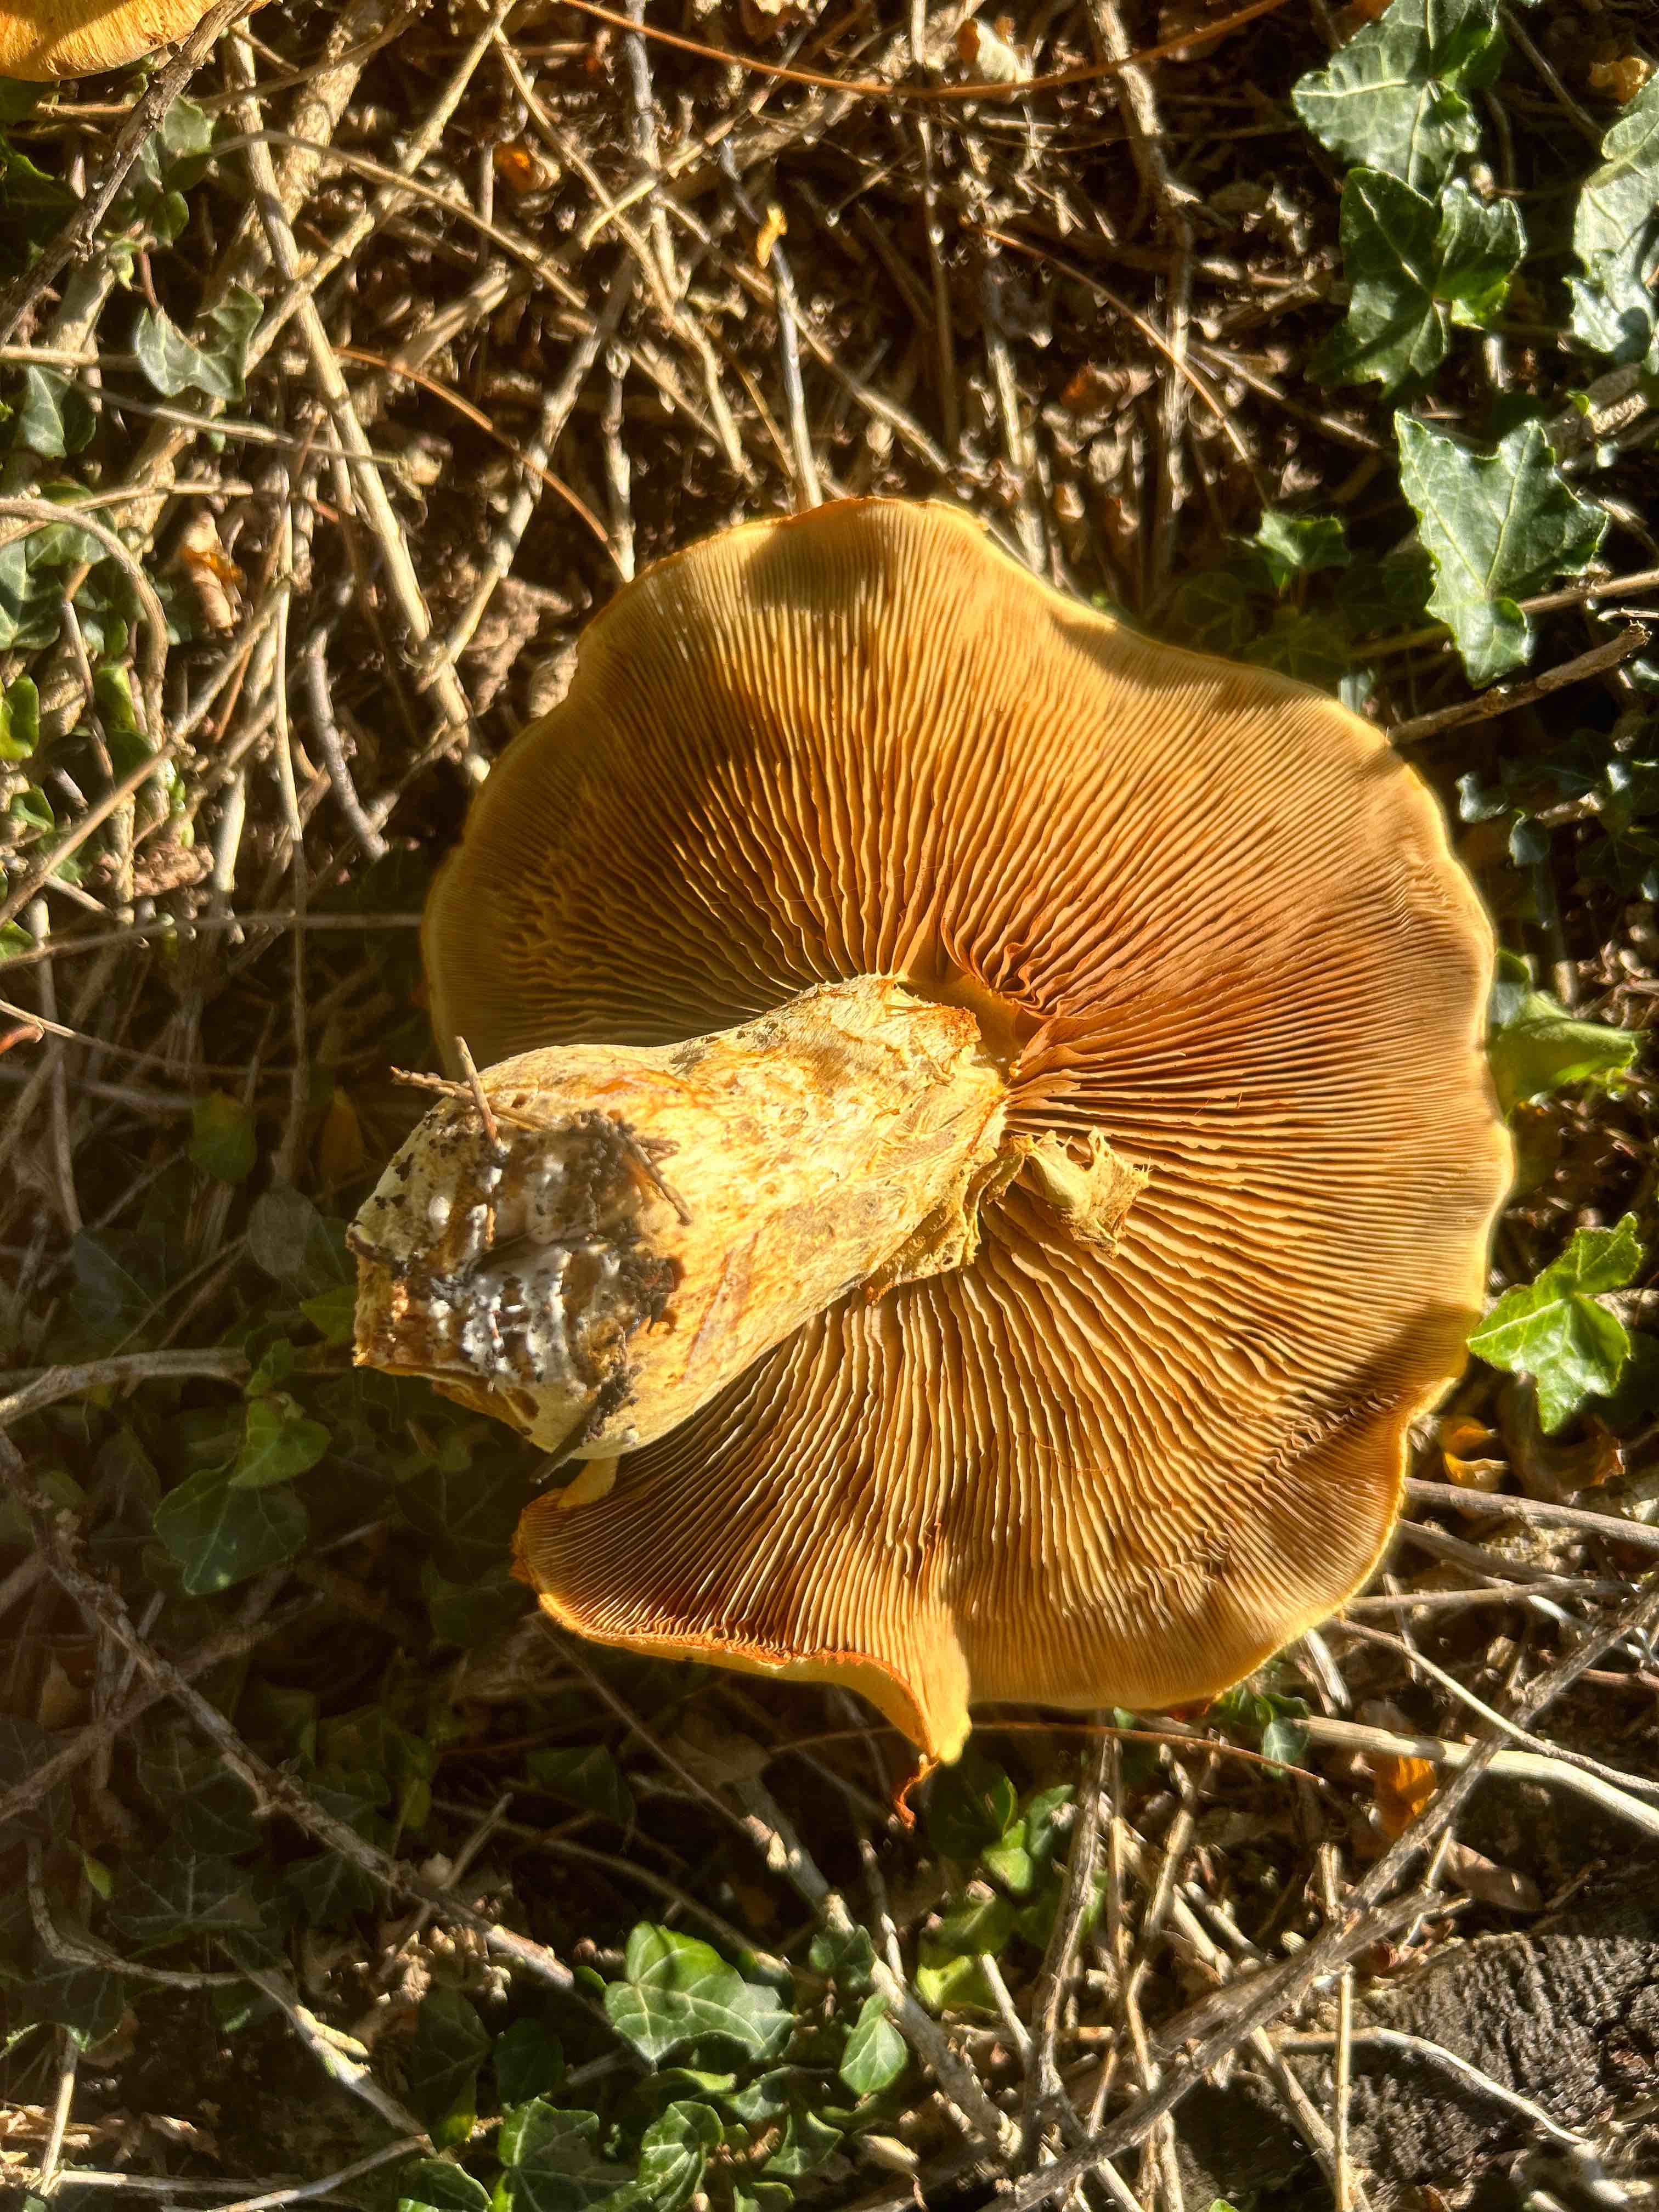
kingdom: Fungi
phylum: Basidiomycota
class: Agaricomycetes
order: Agaricales
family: Hymenogastraceae
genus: Gymnopilus
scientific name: Gymnopilus spectabilis
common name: fibret flammehat
